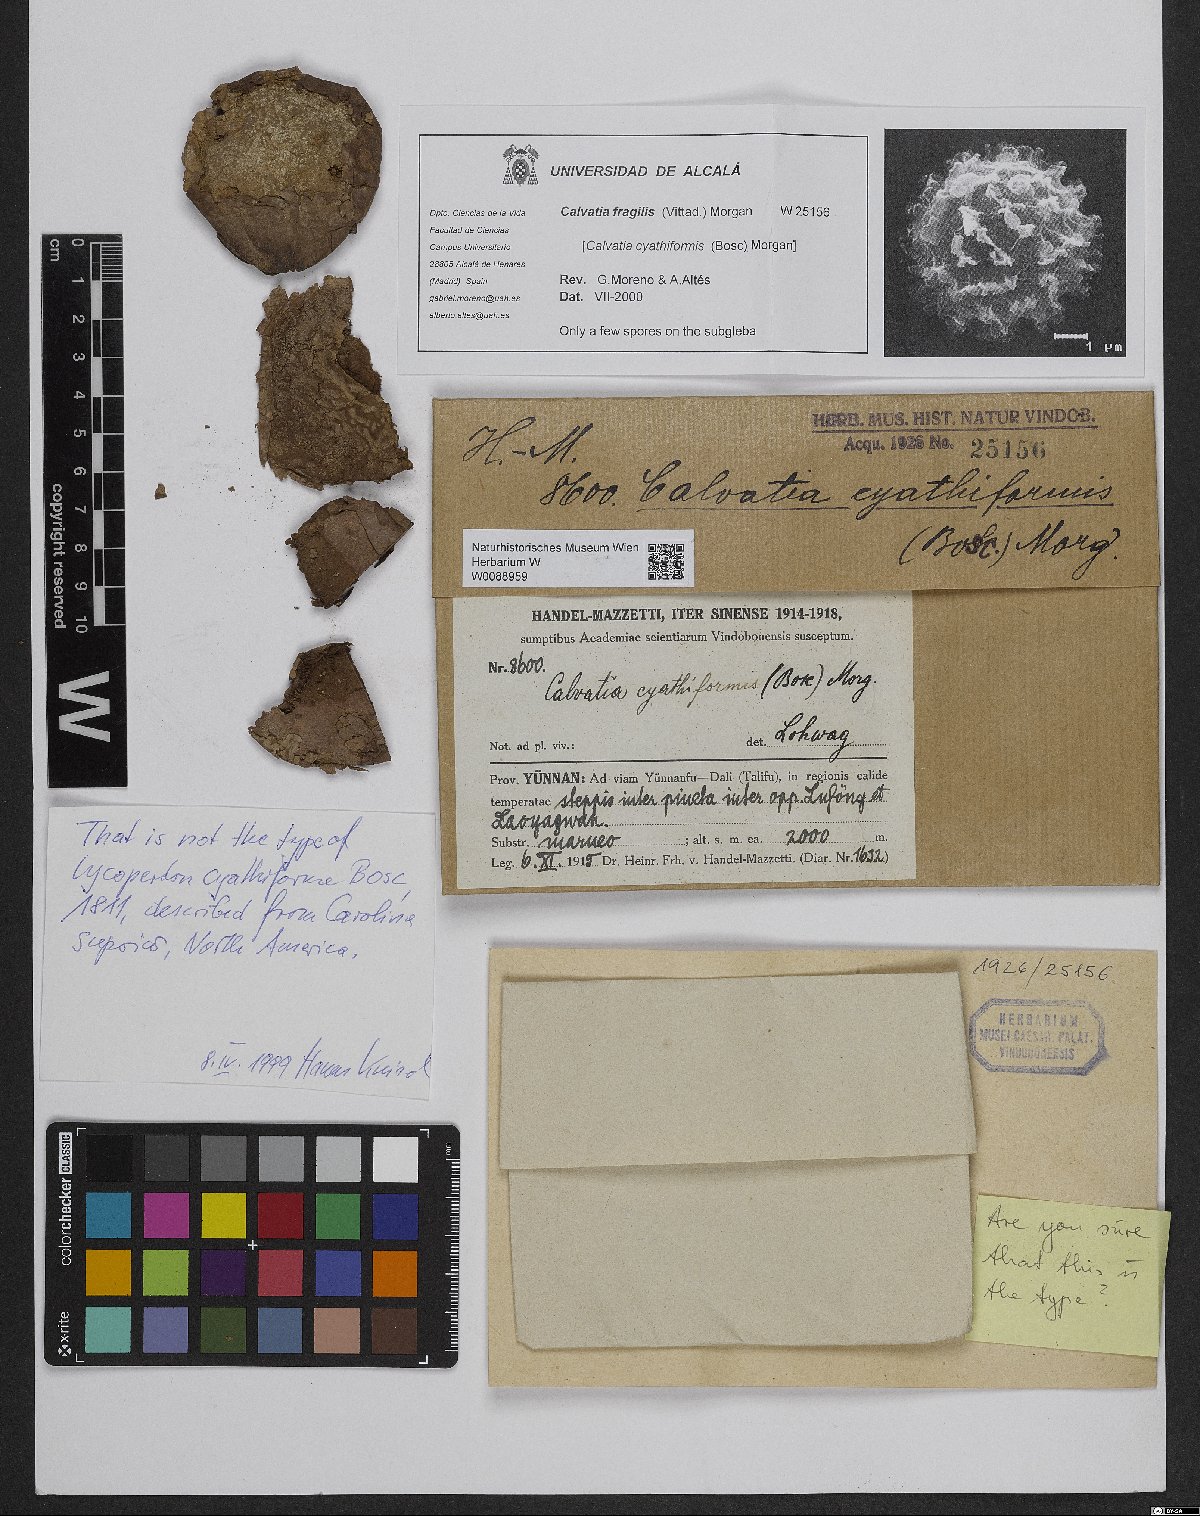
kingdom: Fungi
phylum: Basidiomycota
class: Agaricomycetes
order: Agaricales
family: Lycoperdaceae
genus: Calvatia
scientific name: Calvatia cyathiformis
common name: Purple-spored puffball
